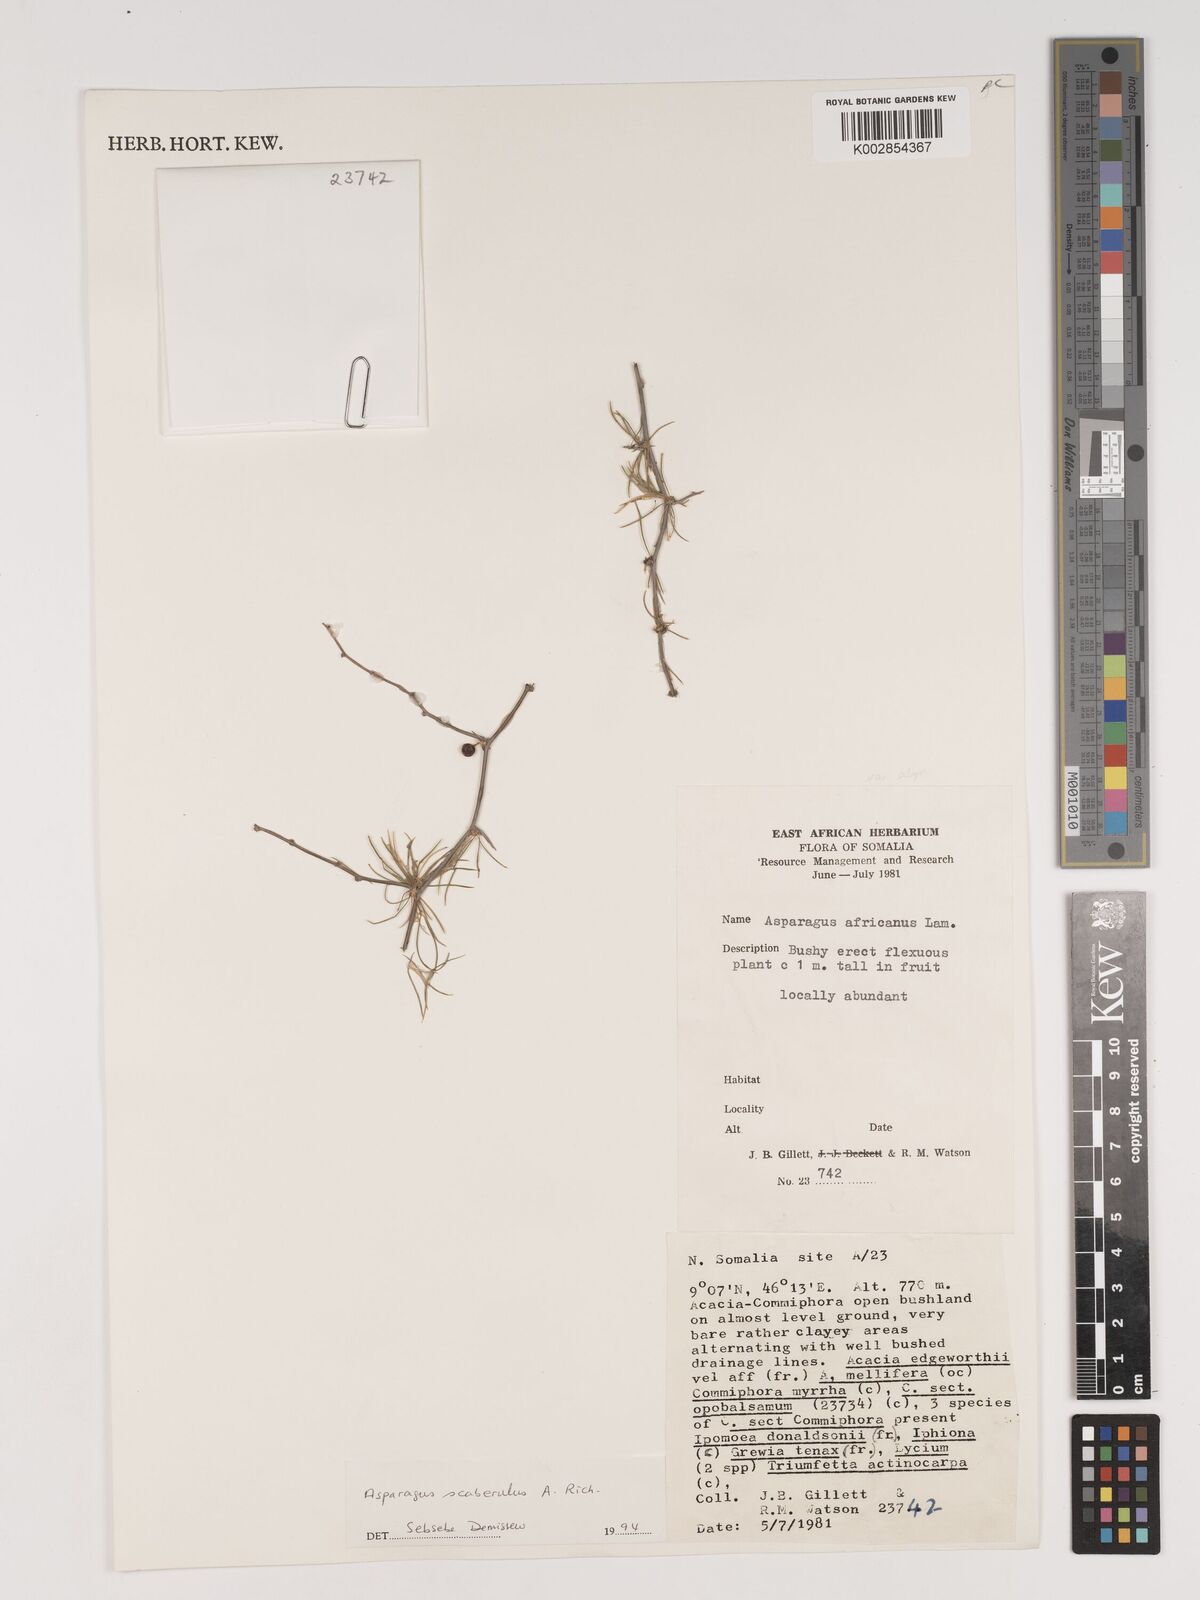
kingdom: Plantae
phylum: Tracheophyta
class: Liliopsida
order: Asparagales
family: Asparagaceae
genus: Asparagus
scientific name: Asparagus scaberulus
